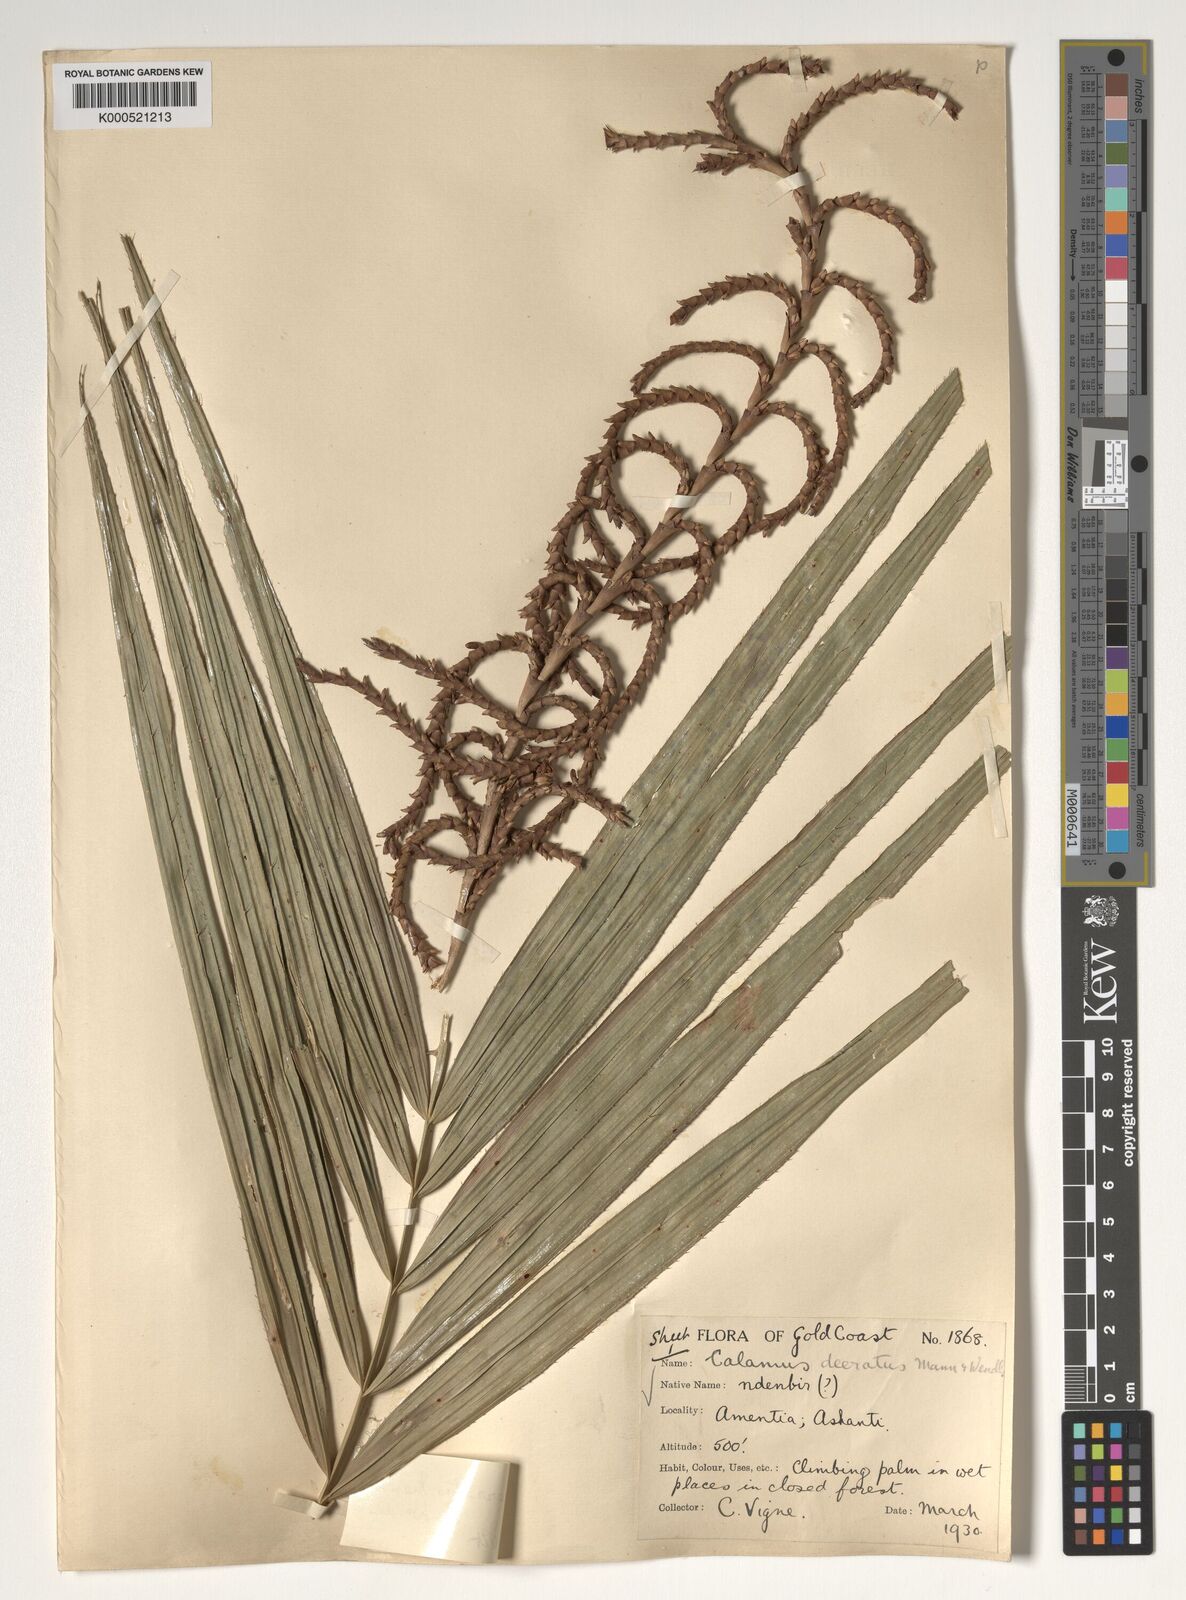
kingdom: Plantae
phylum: Tracheophyta
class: Liliopsida
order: Arecales
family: Arecaceae
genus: Calamus
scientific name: Calamus deerratus
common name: Rattan
